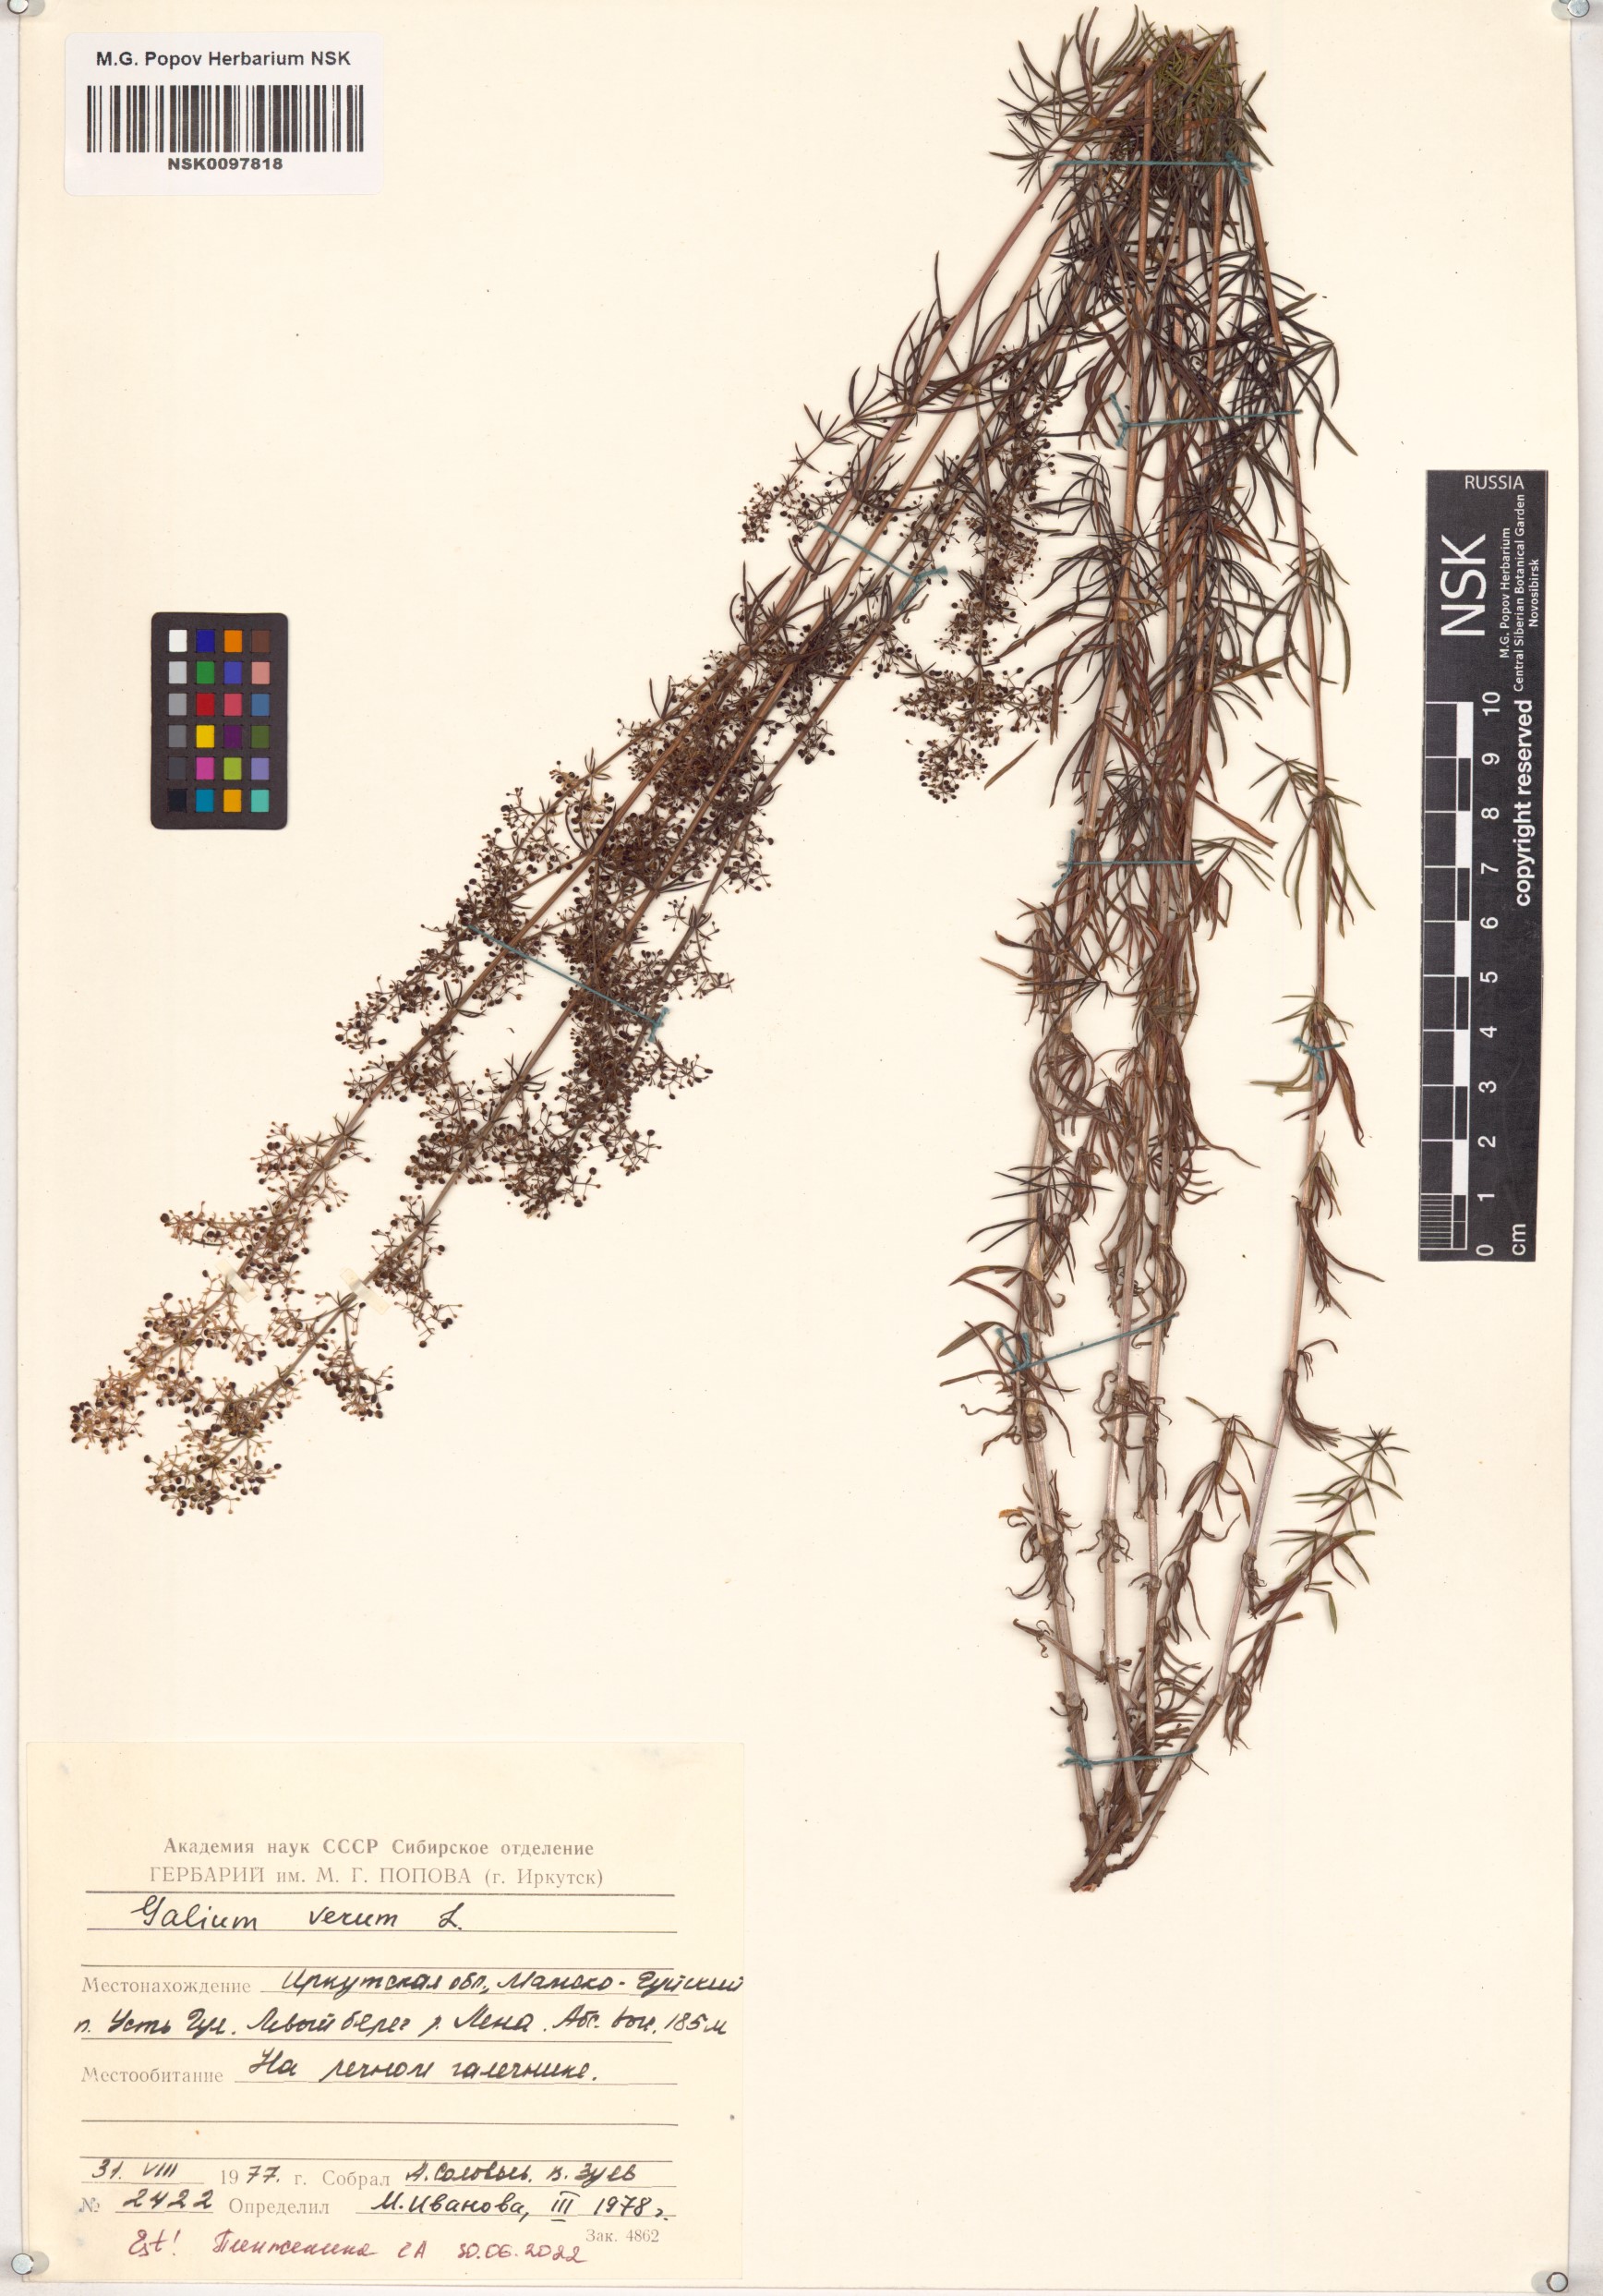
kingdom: Plantae
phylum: Tracheophyta
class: Magnoliopsida
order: Gentianales
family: Rubiaceae
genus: Galium
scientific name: Galium verum
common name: Lady's bedstraw
